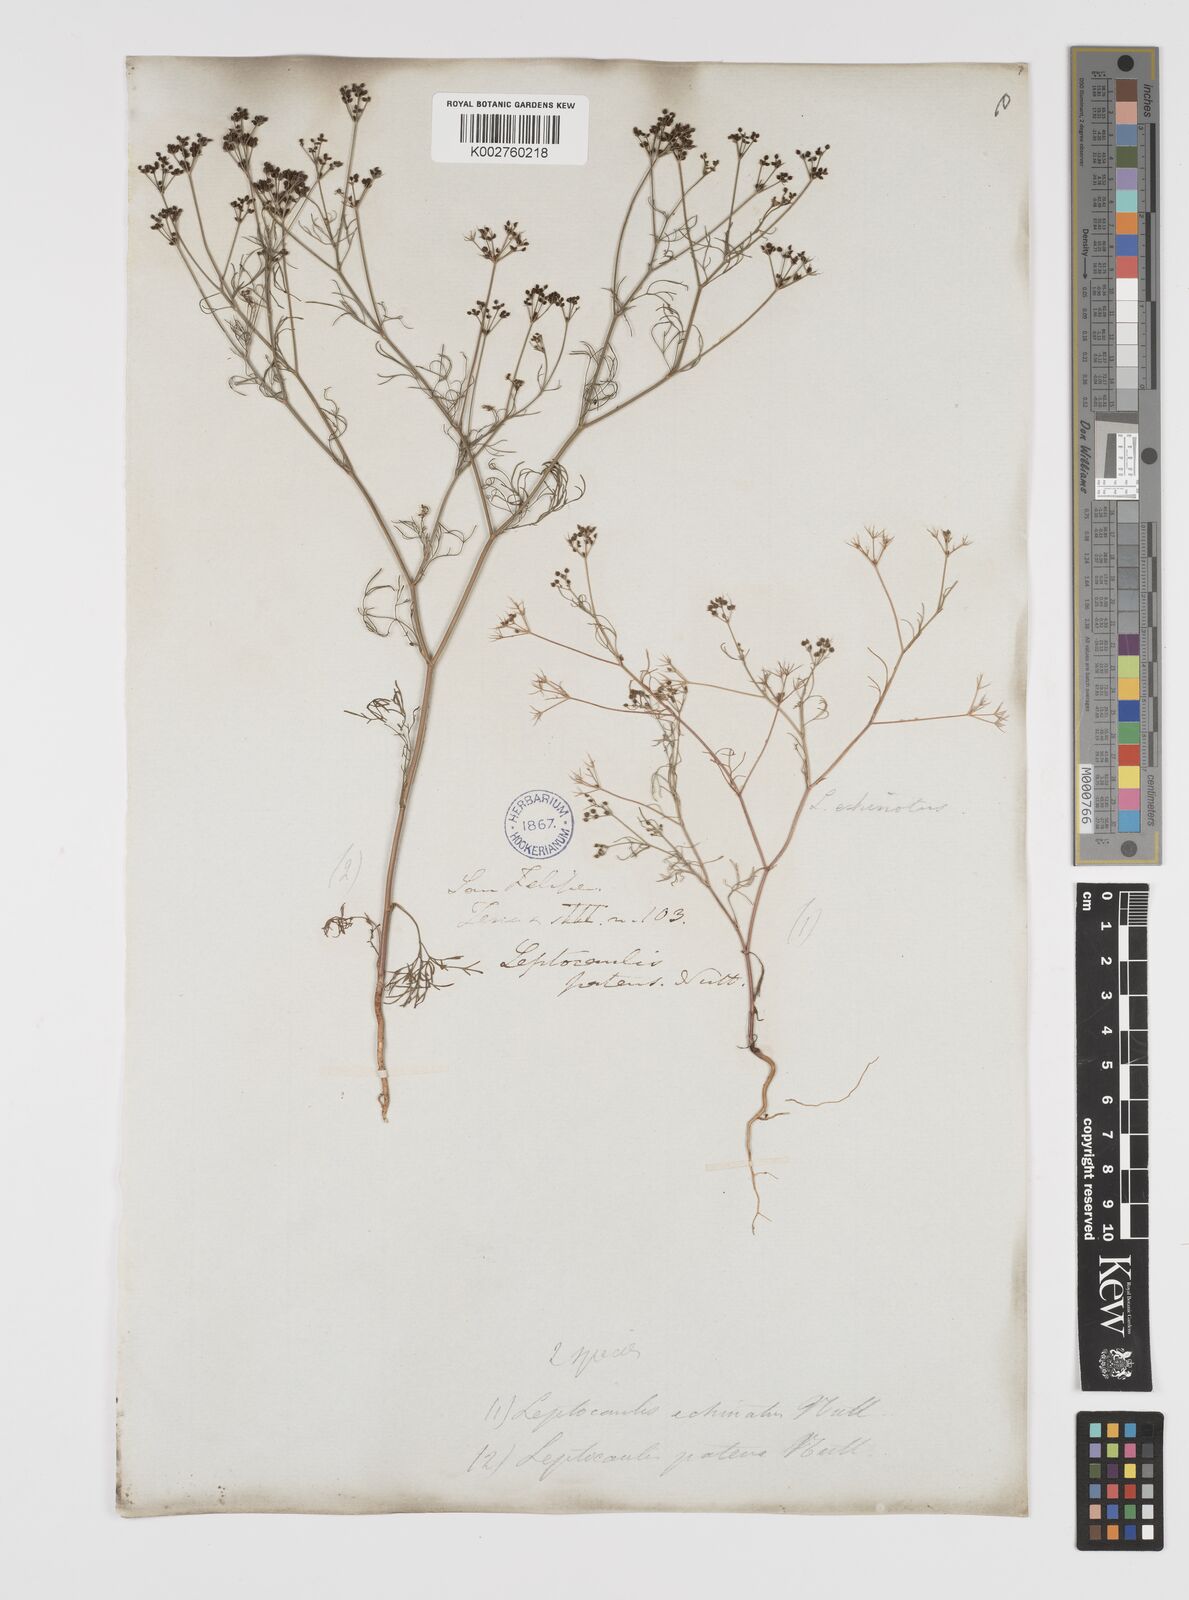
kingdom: Plantae
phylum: Tracheophyta
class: Magnoliopsida
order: Apiales
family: Apiaceae
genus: Spermolepis
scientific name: Spermolepis echinata
